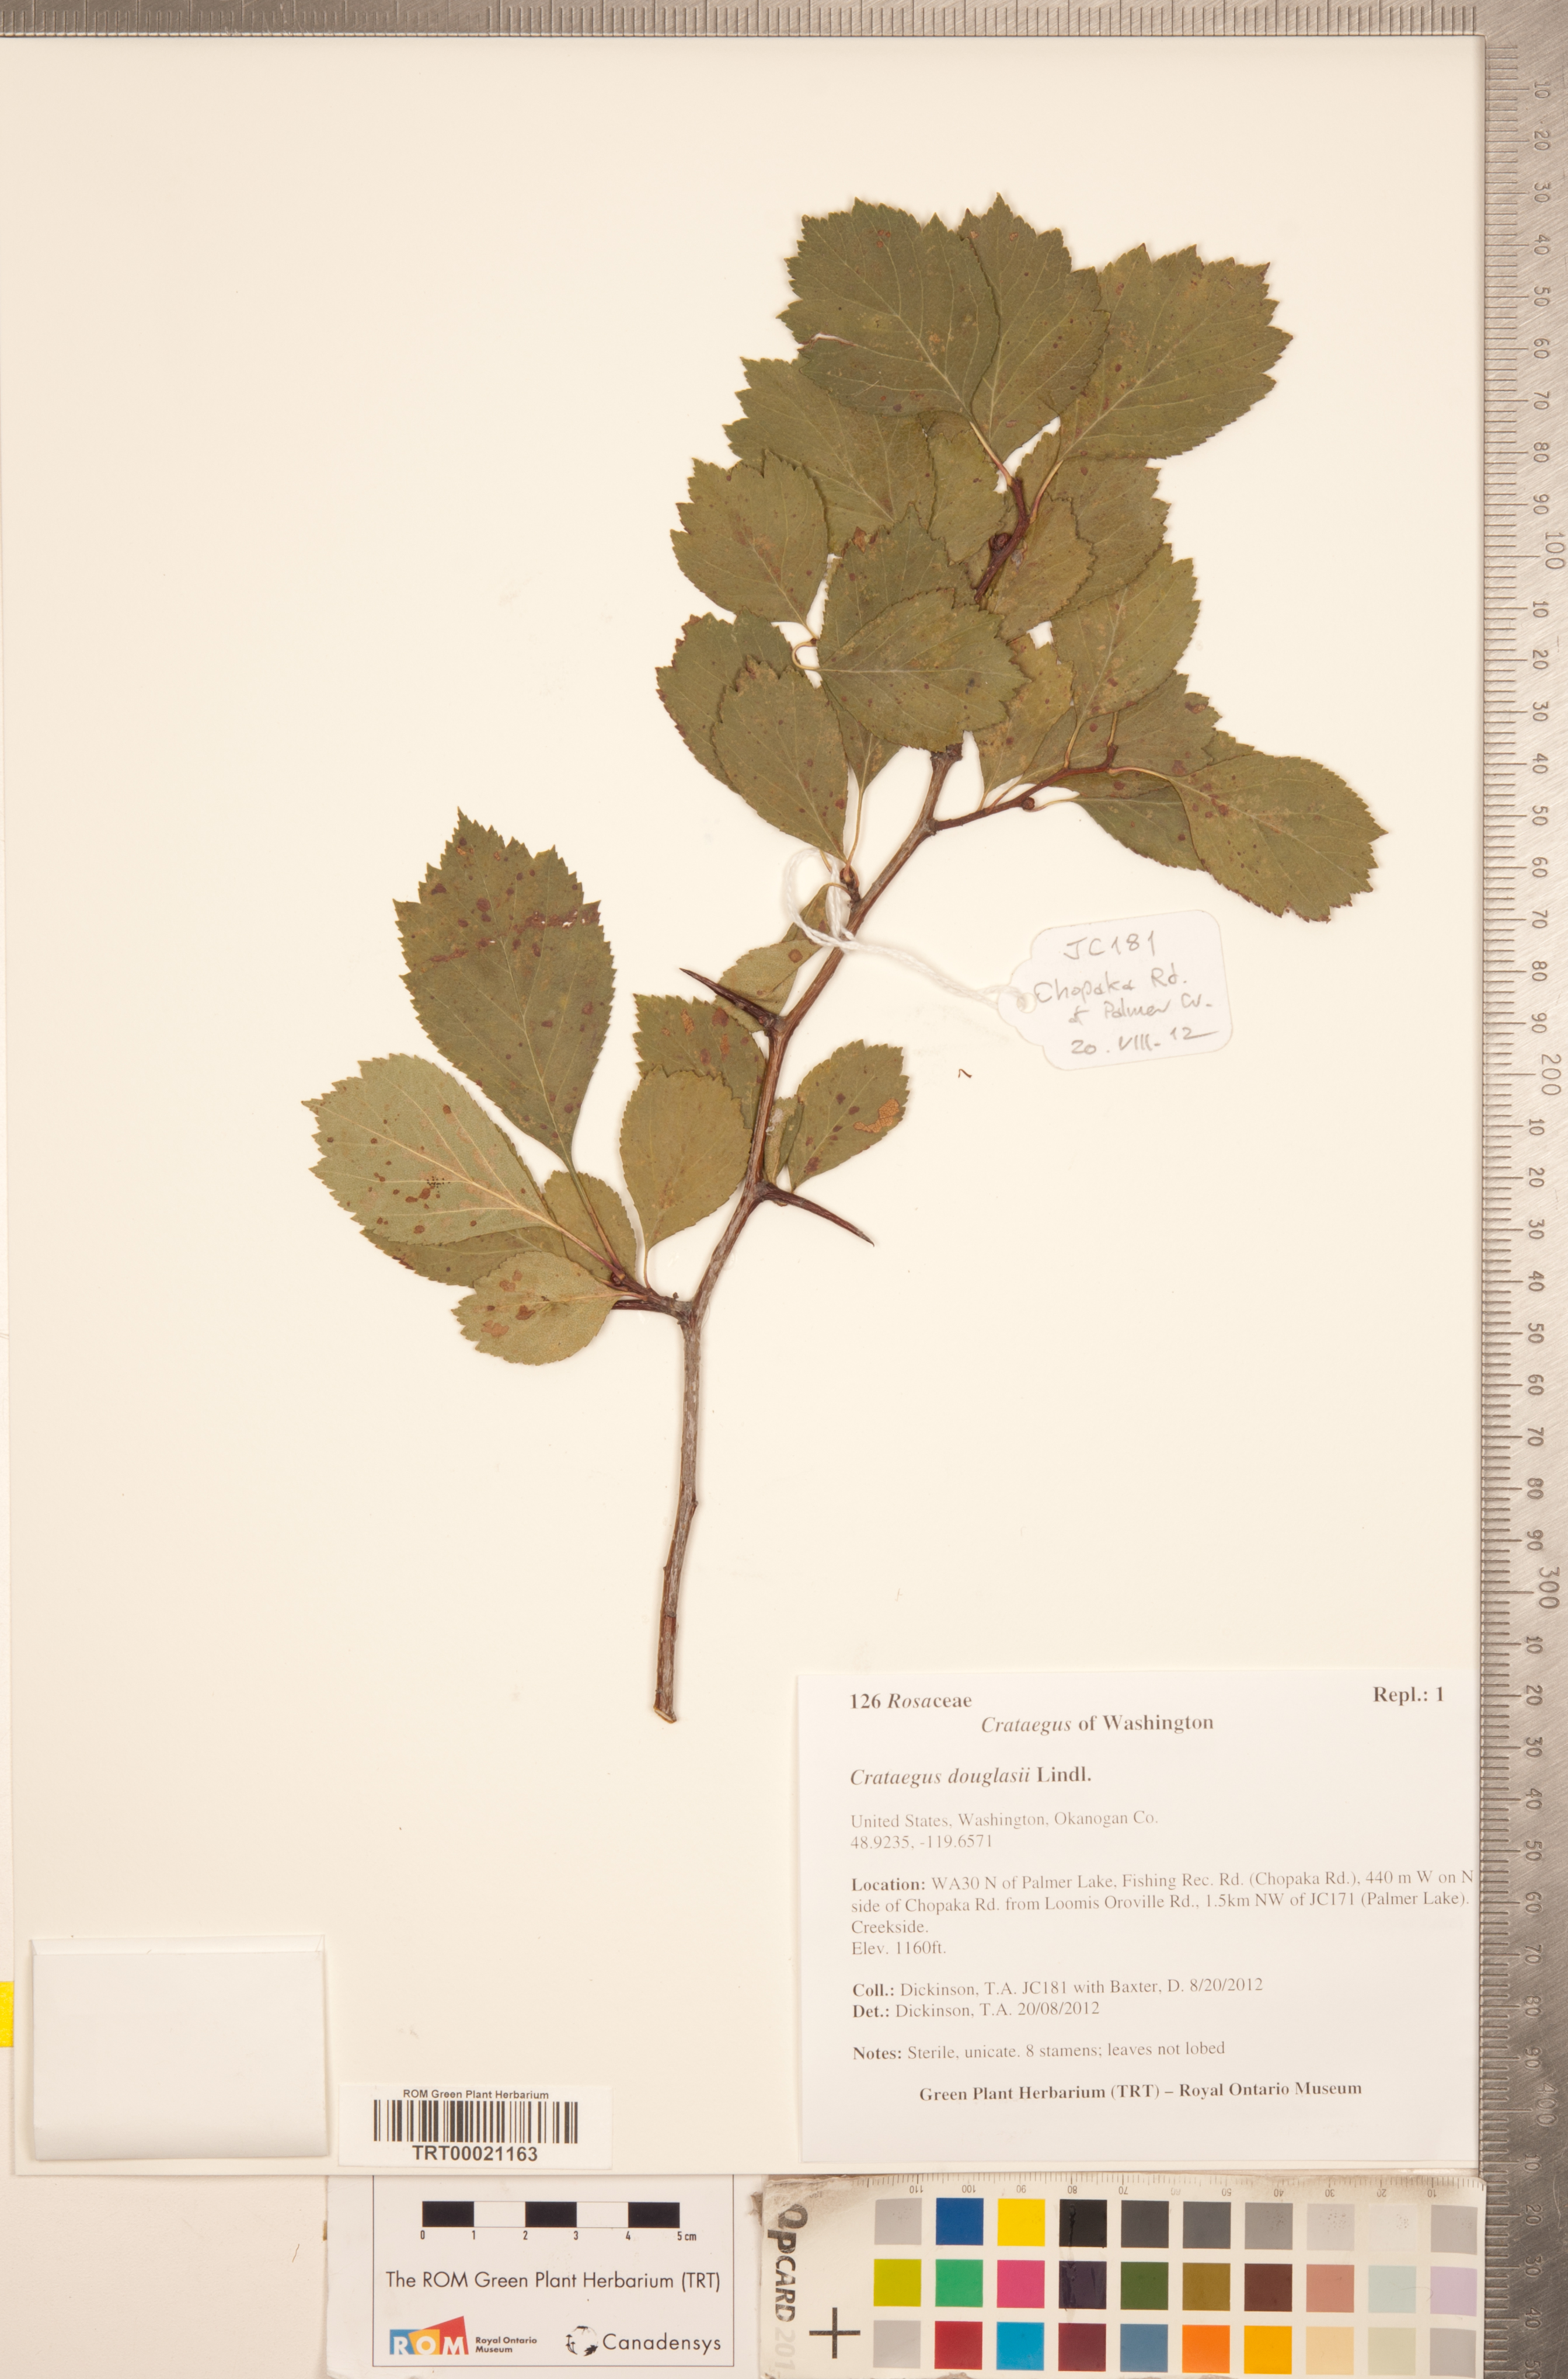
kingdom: Plantae
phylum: Tracheophyta
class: Magnoliopsida
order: Rosales
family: Rosaceae
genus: Crataegus
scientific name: Crataegus douglasii
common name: Black hawthorn
